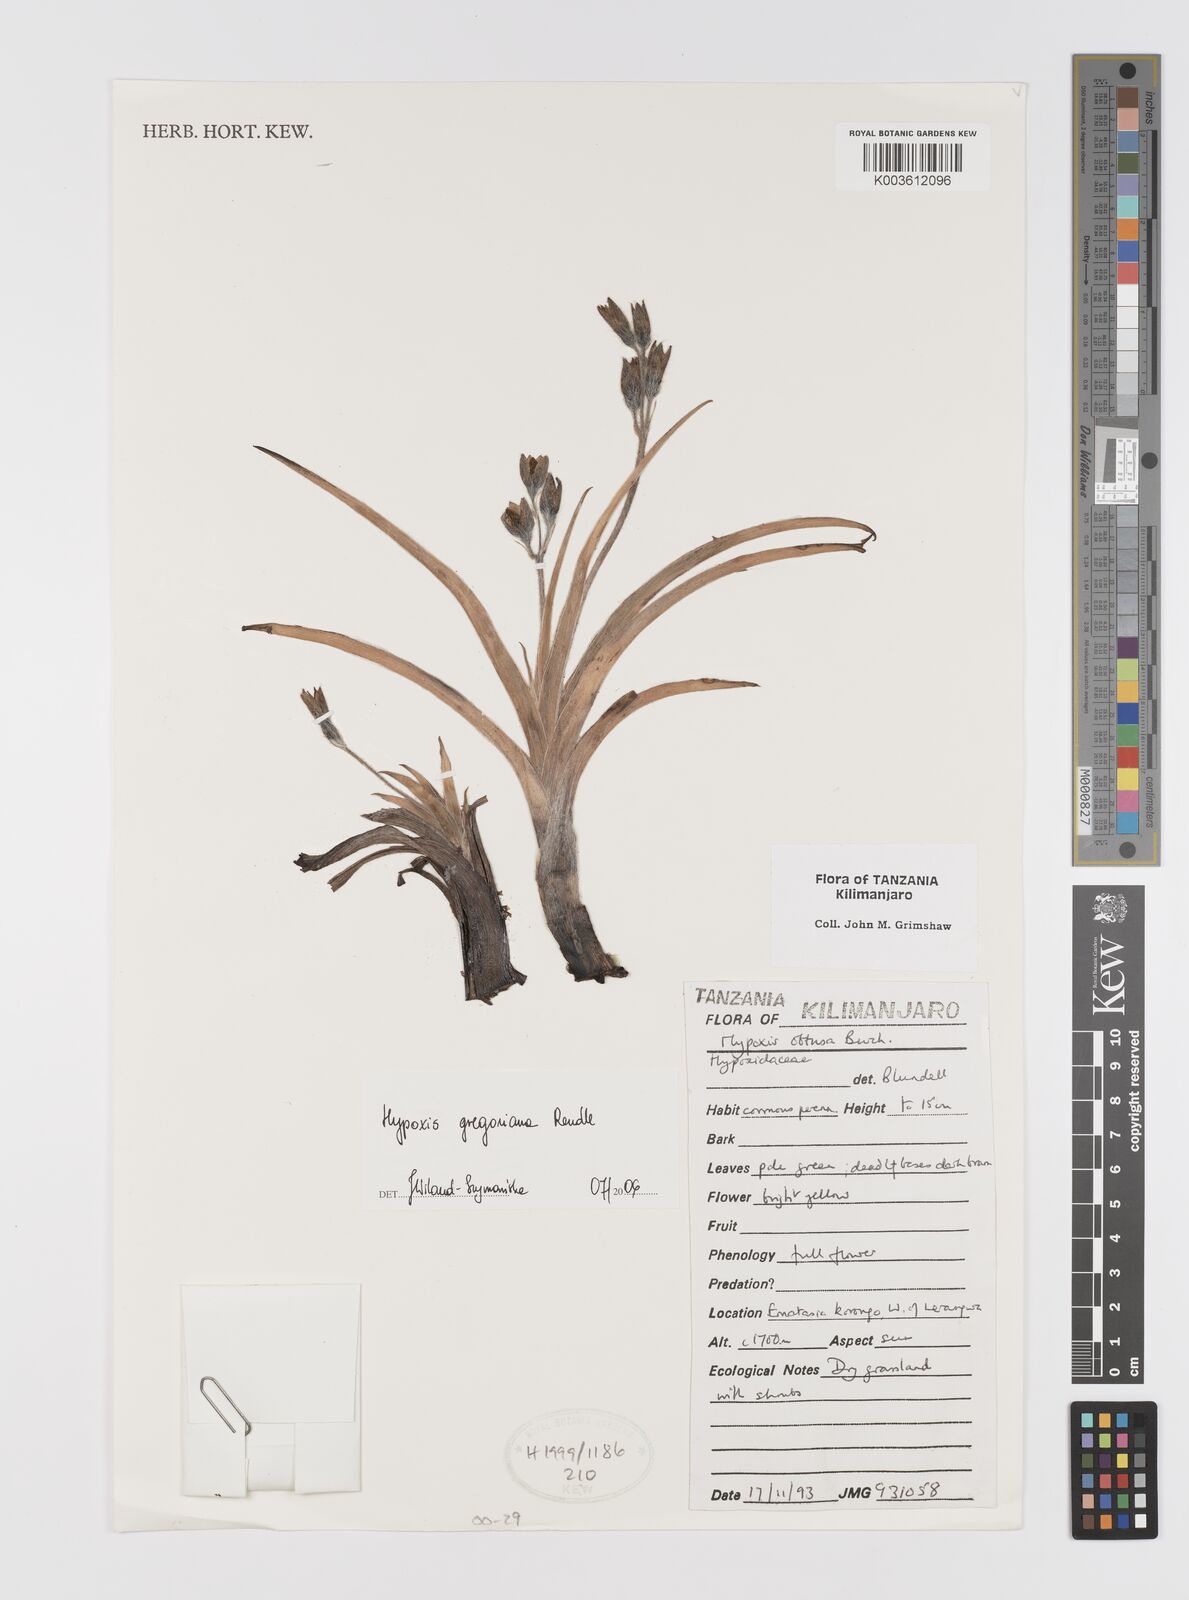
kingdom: Plantae
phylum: Tracheophyta
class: Liliopsida
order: Asparagales
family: Hypoxidaceae
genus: Hypoxis
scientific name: Hypoxis gregoriana
